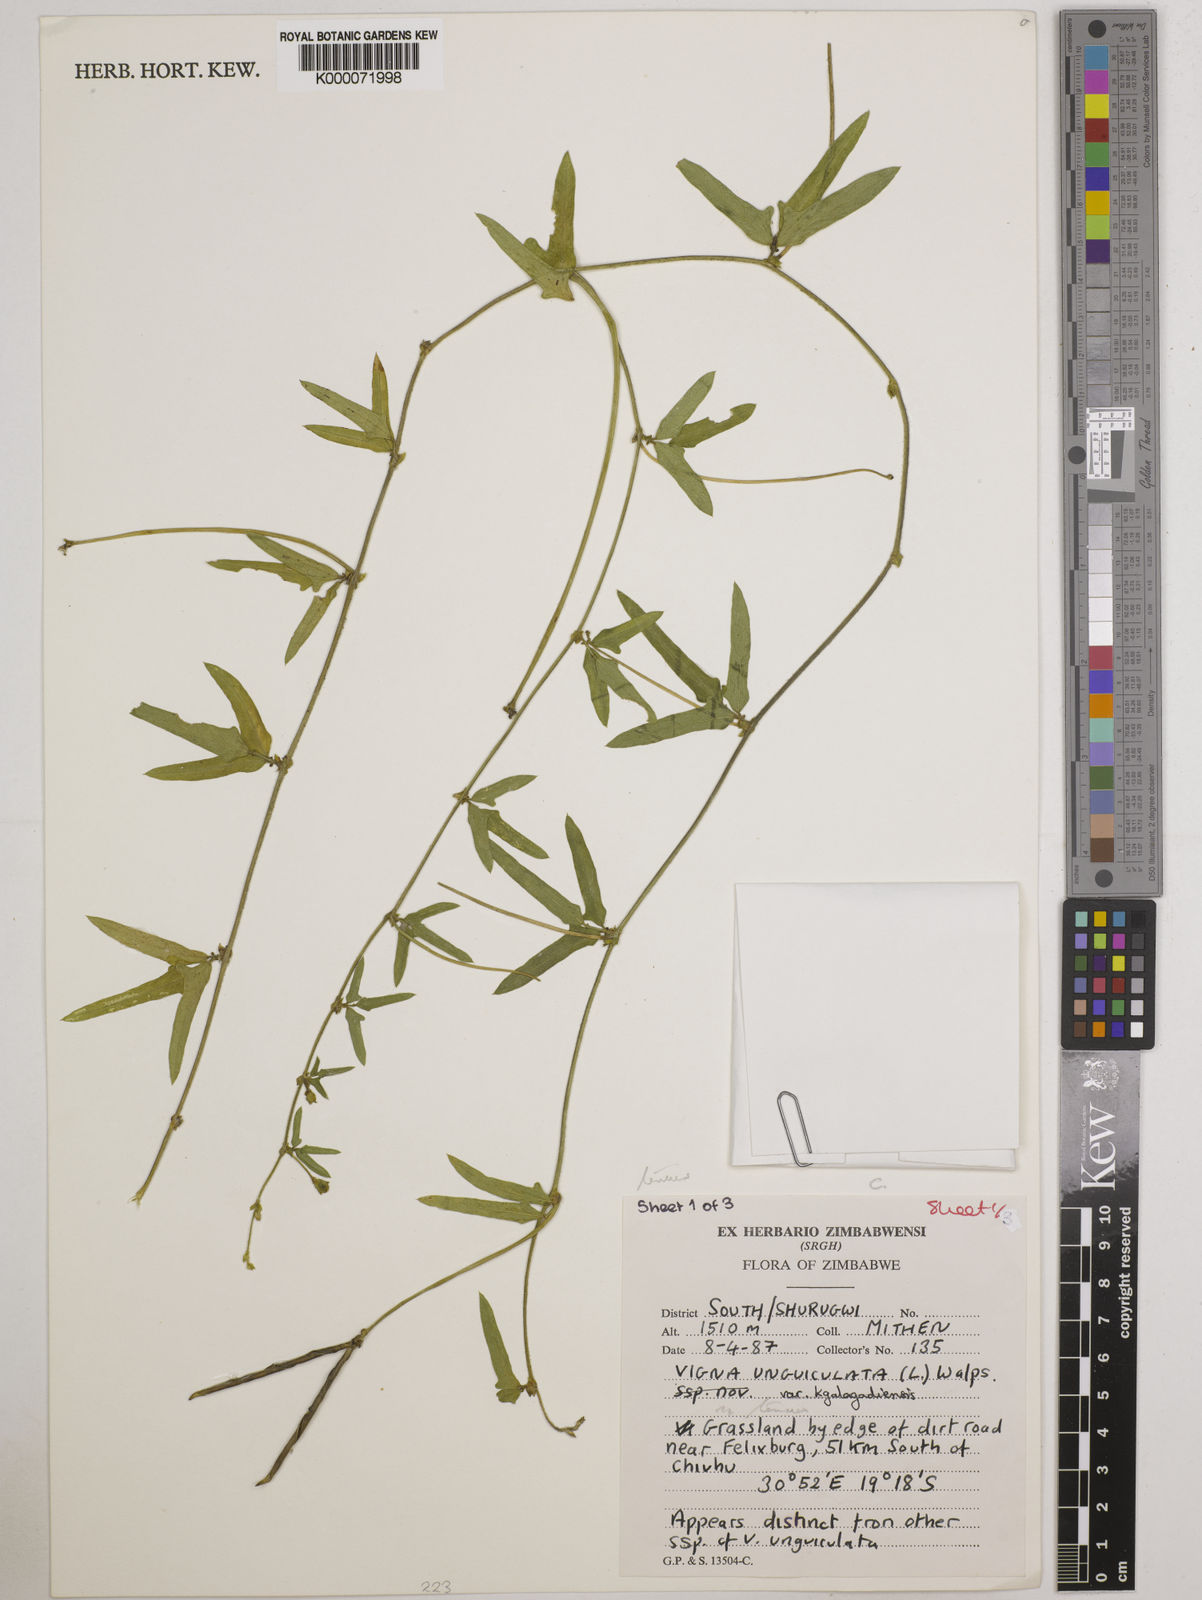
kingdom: Plantae
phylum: Tracheophyta
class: Magnoliopsida
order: Fabales
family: Fabaceae
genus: Vigna
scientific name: Vigna unguiculata
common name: Cowpea
